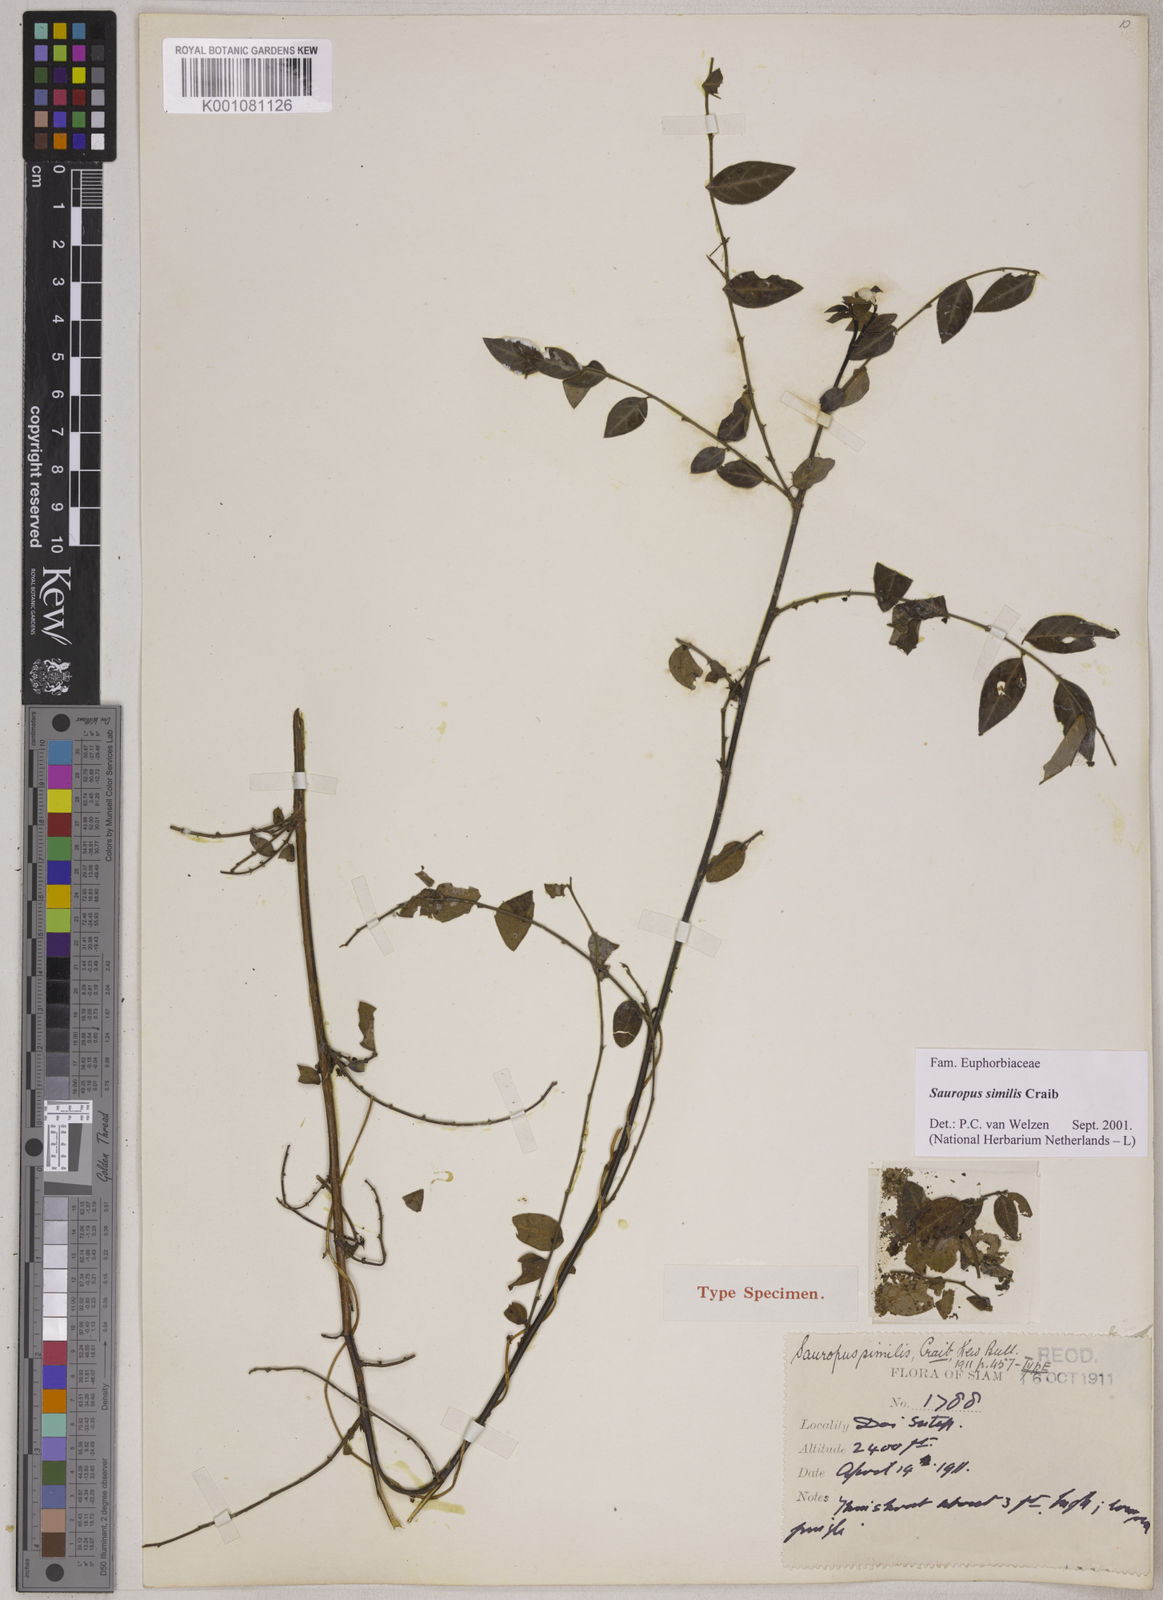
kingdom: Plantae
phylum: Tracheophyta
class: Magnoliopsida
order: Malpighiales
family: Phyllanthaceae
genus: Breynia
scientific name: Breynia similis
